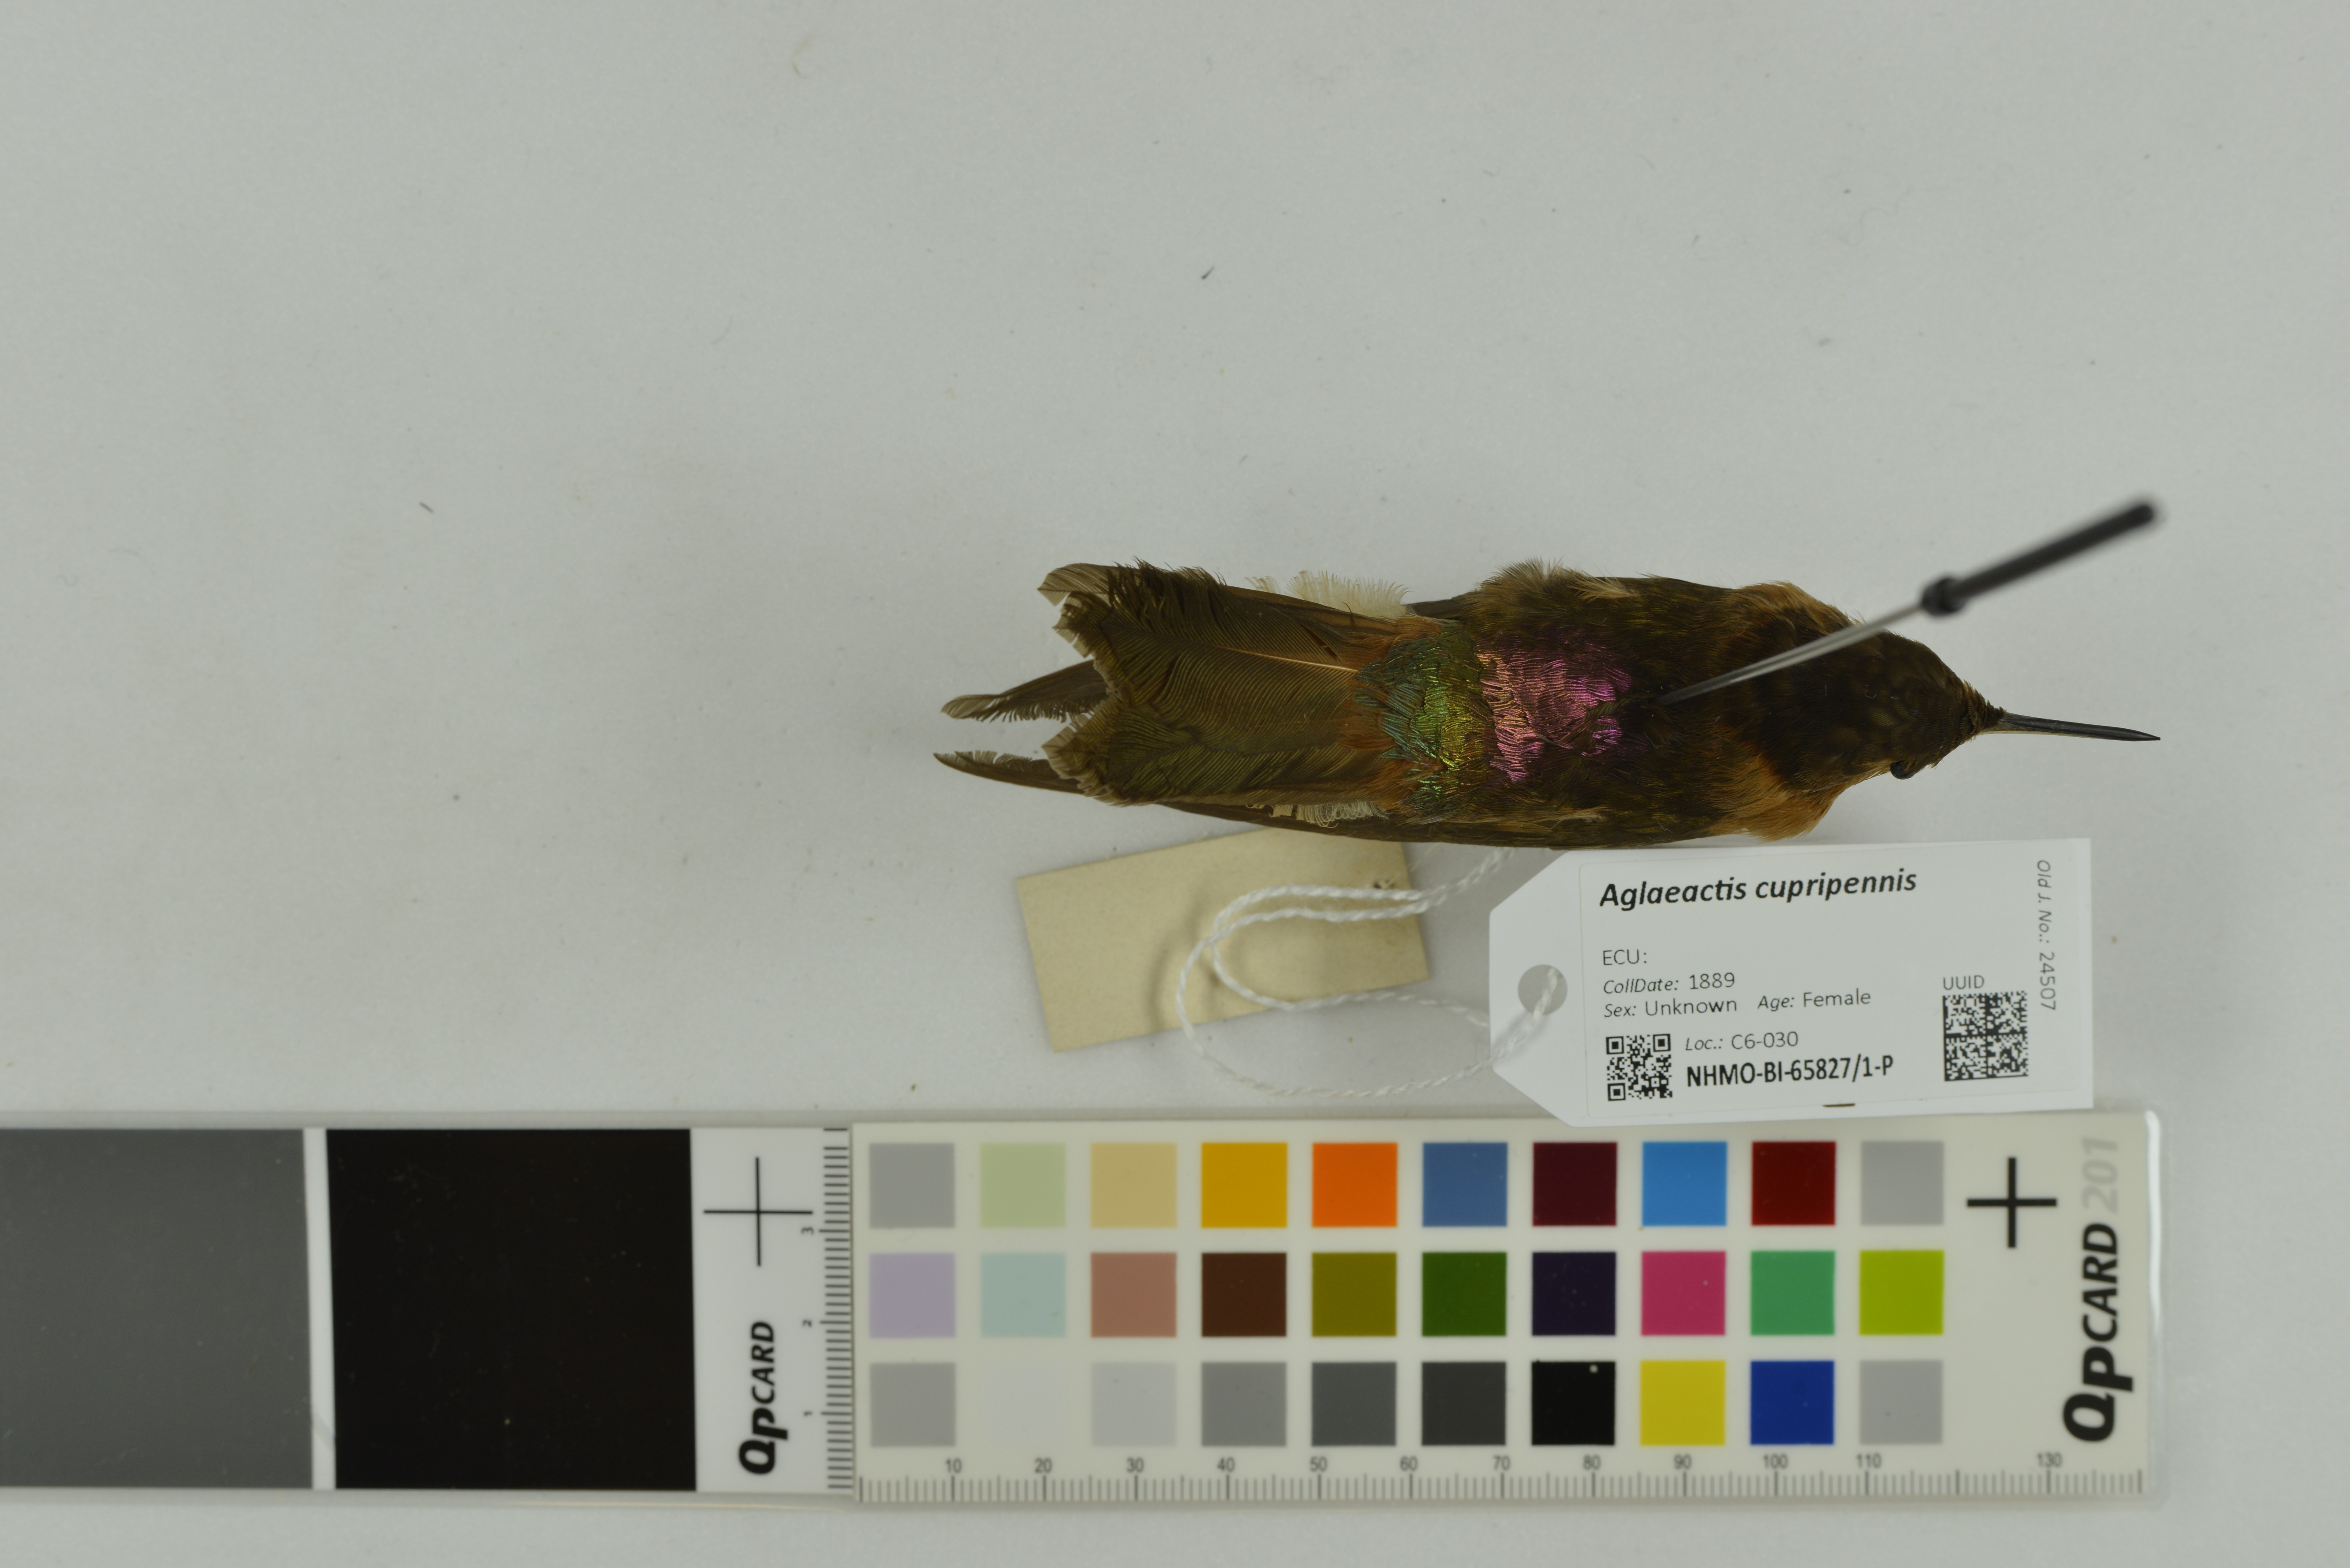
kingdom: Animalia
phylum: Chordata
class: Aves
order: Apodiformes
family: Trochilidae
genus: Aglaeactis
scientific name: Aglaeactis cupripennis
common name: Shining sunbeam
